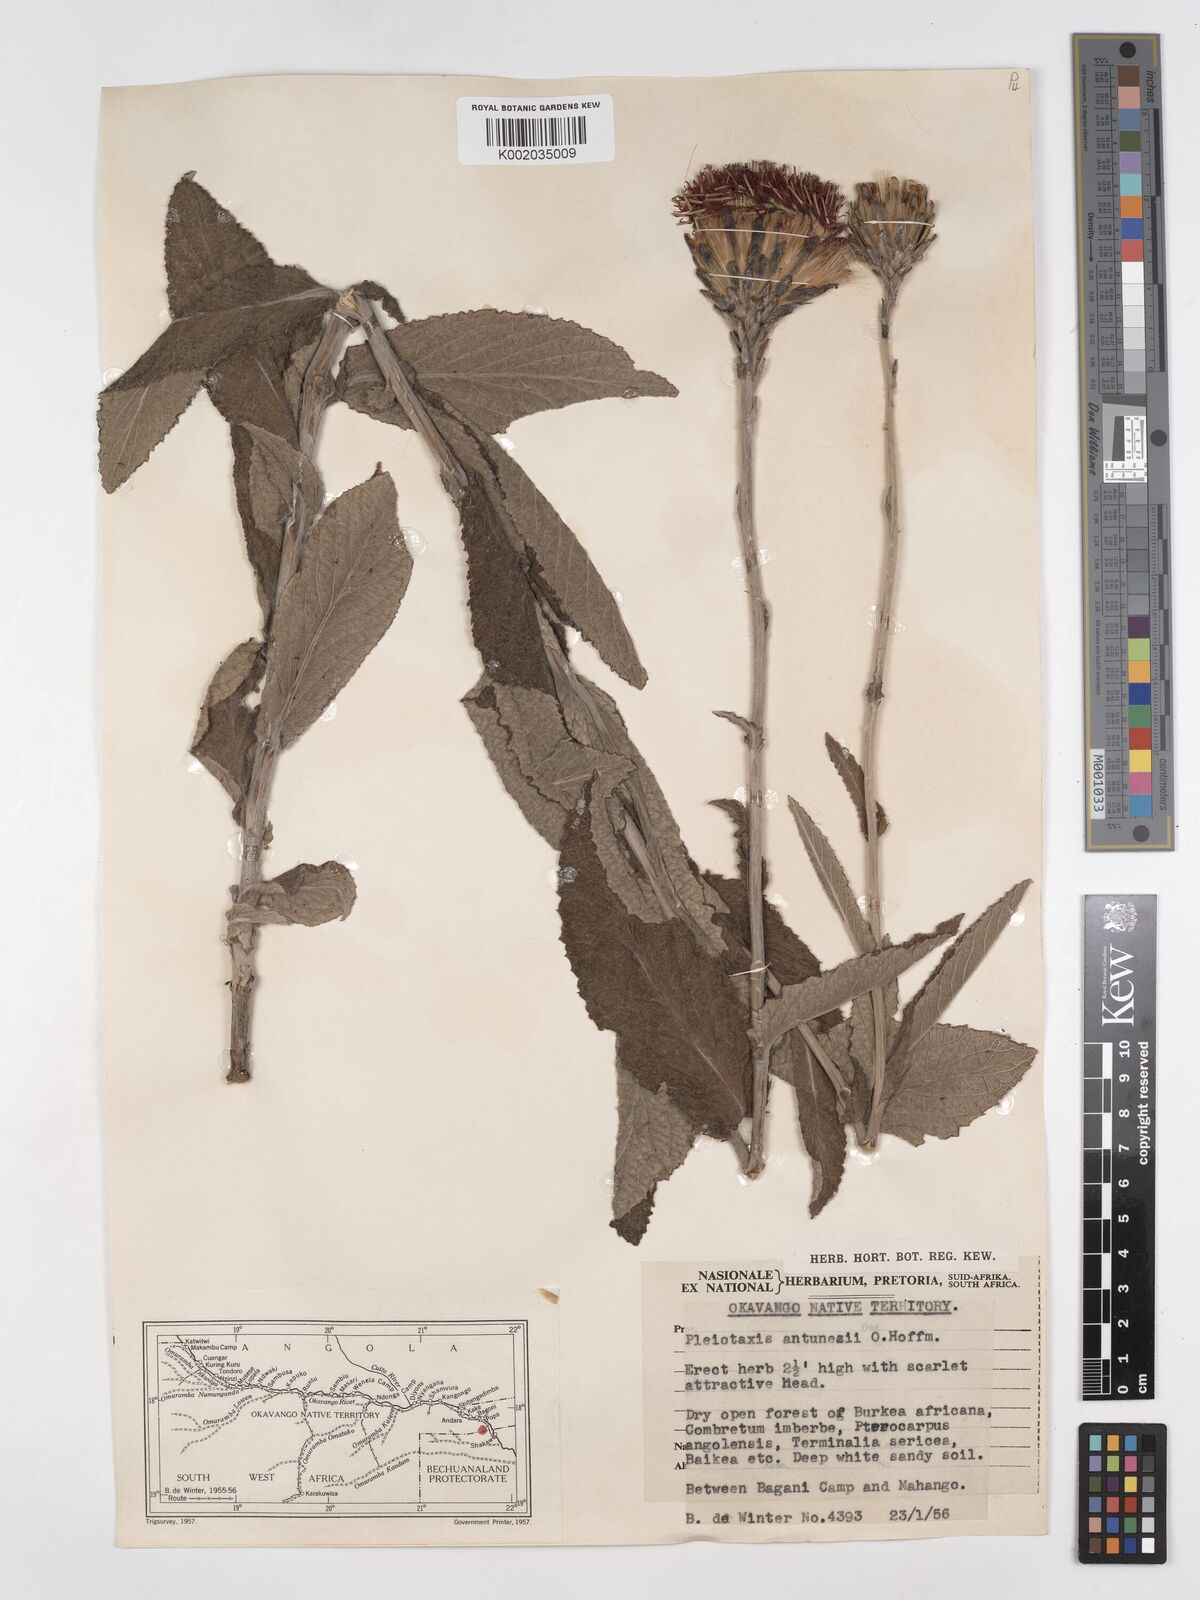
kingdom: Plantae
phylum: Tracheophyta
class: Magnoliopsida
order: Asterales
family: Asteraceae
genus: Pleiotaxis
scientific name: Pleiotaxis antunesii
